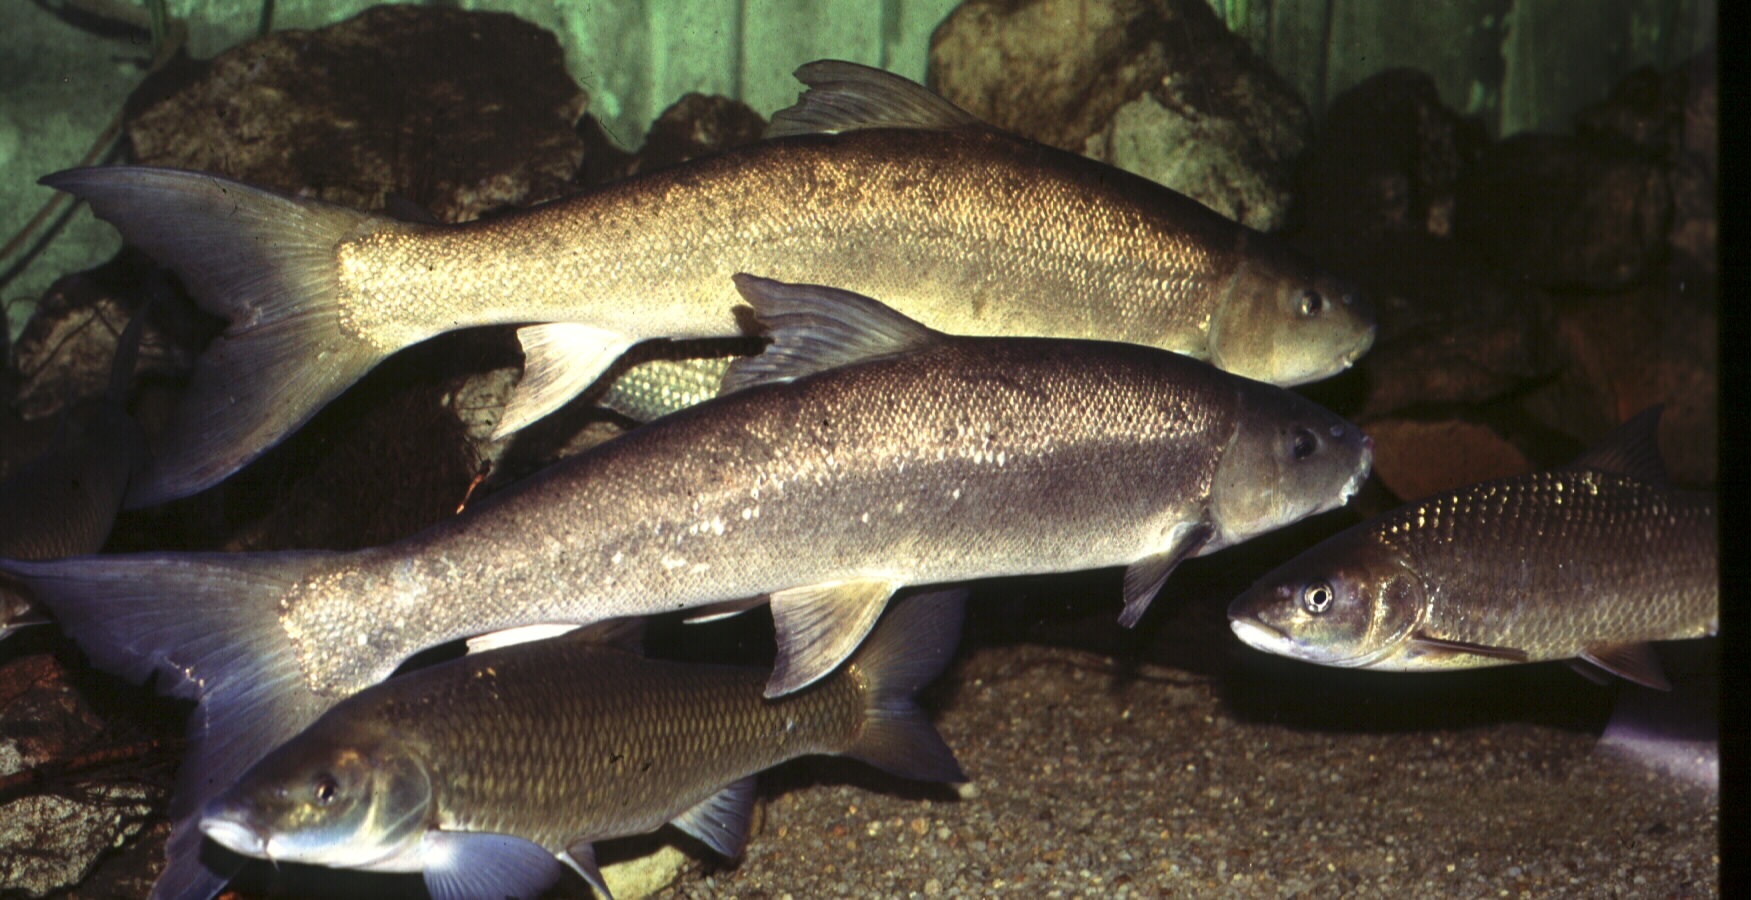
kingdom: Animalia
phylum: Chordata
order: Cypriniformes
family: Cyprinidae
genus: Labeo
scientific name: Labeo seeberi
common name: Clanwilliam sandfish
